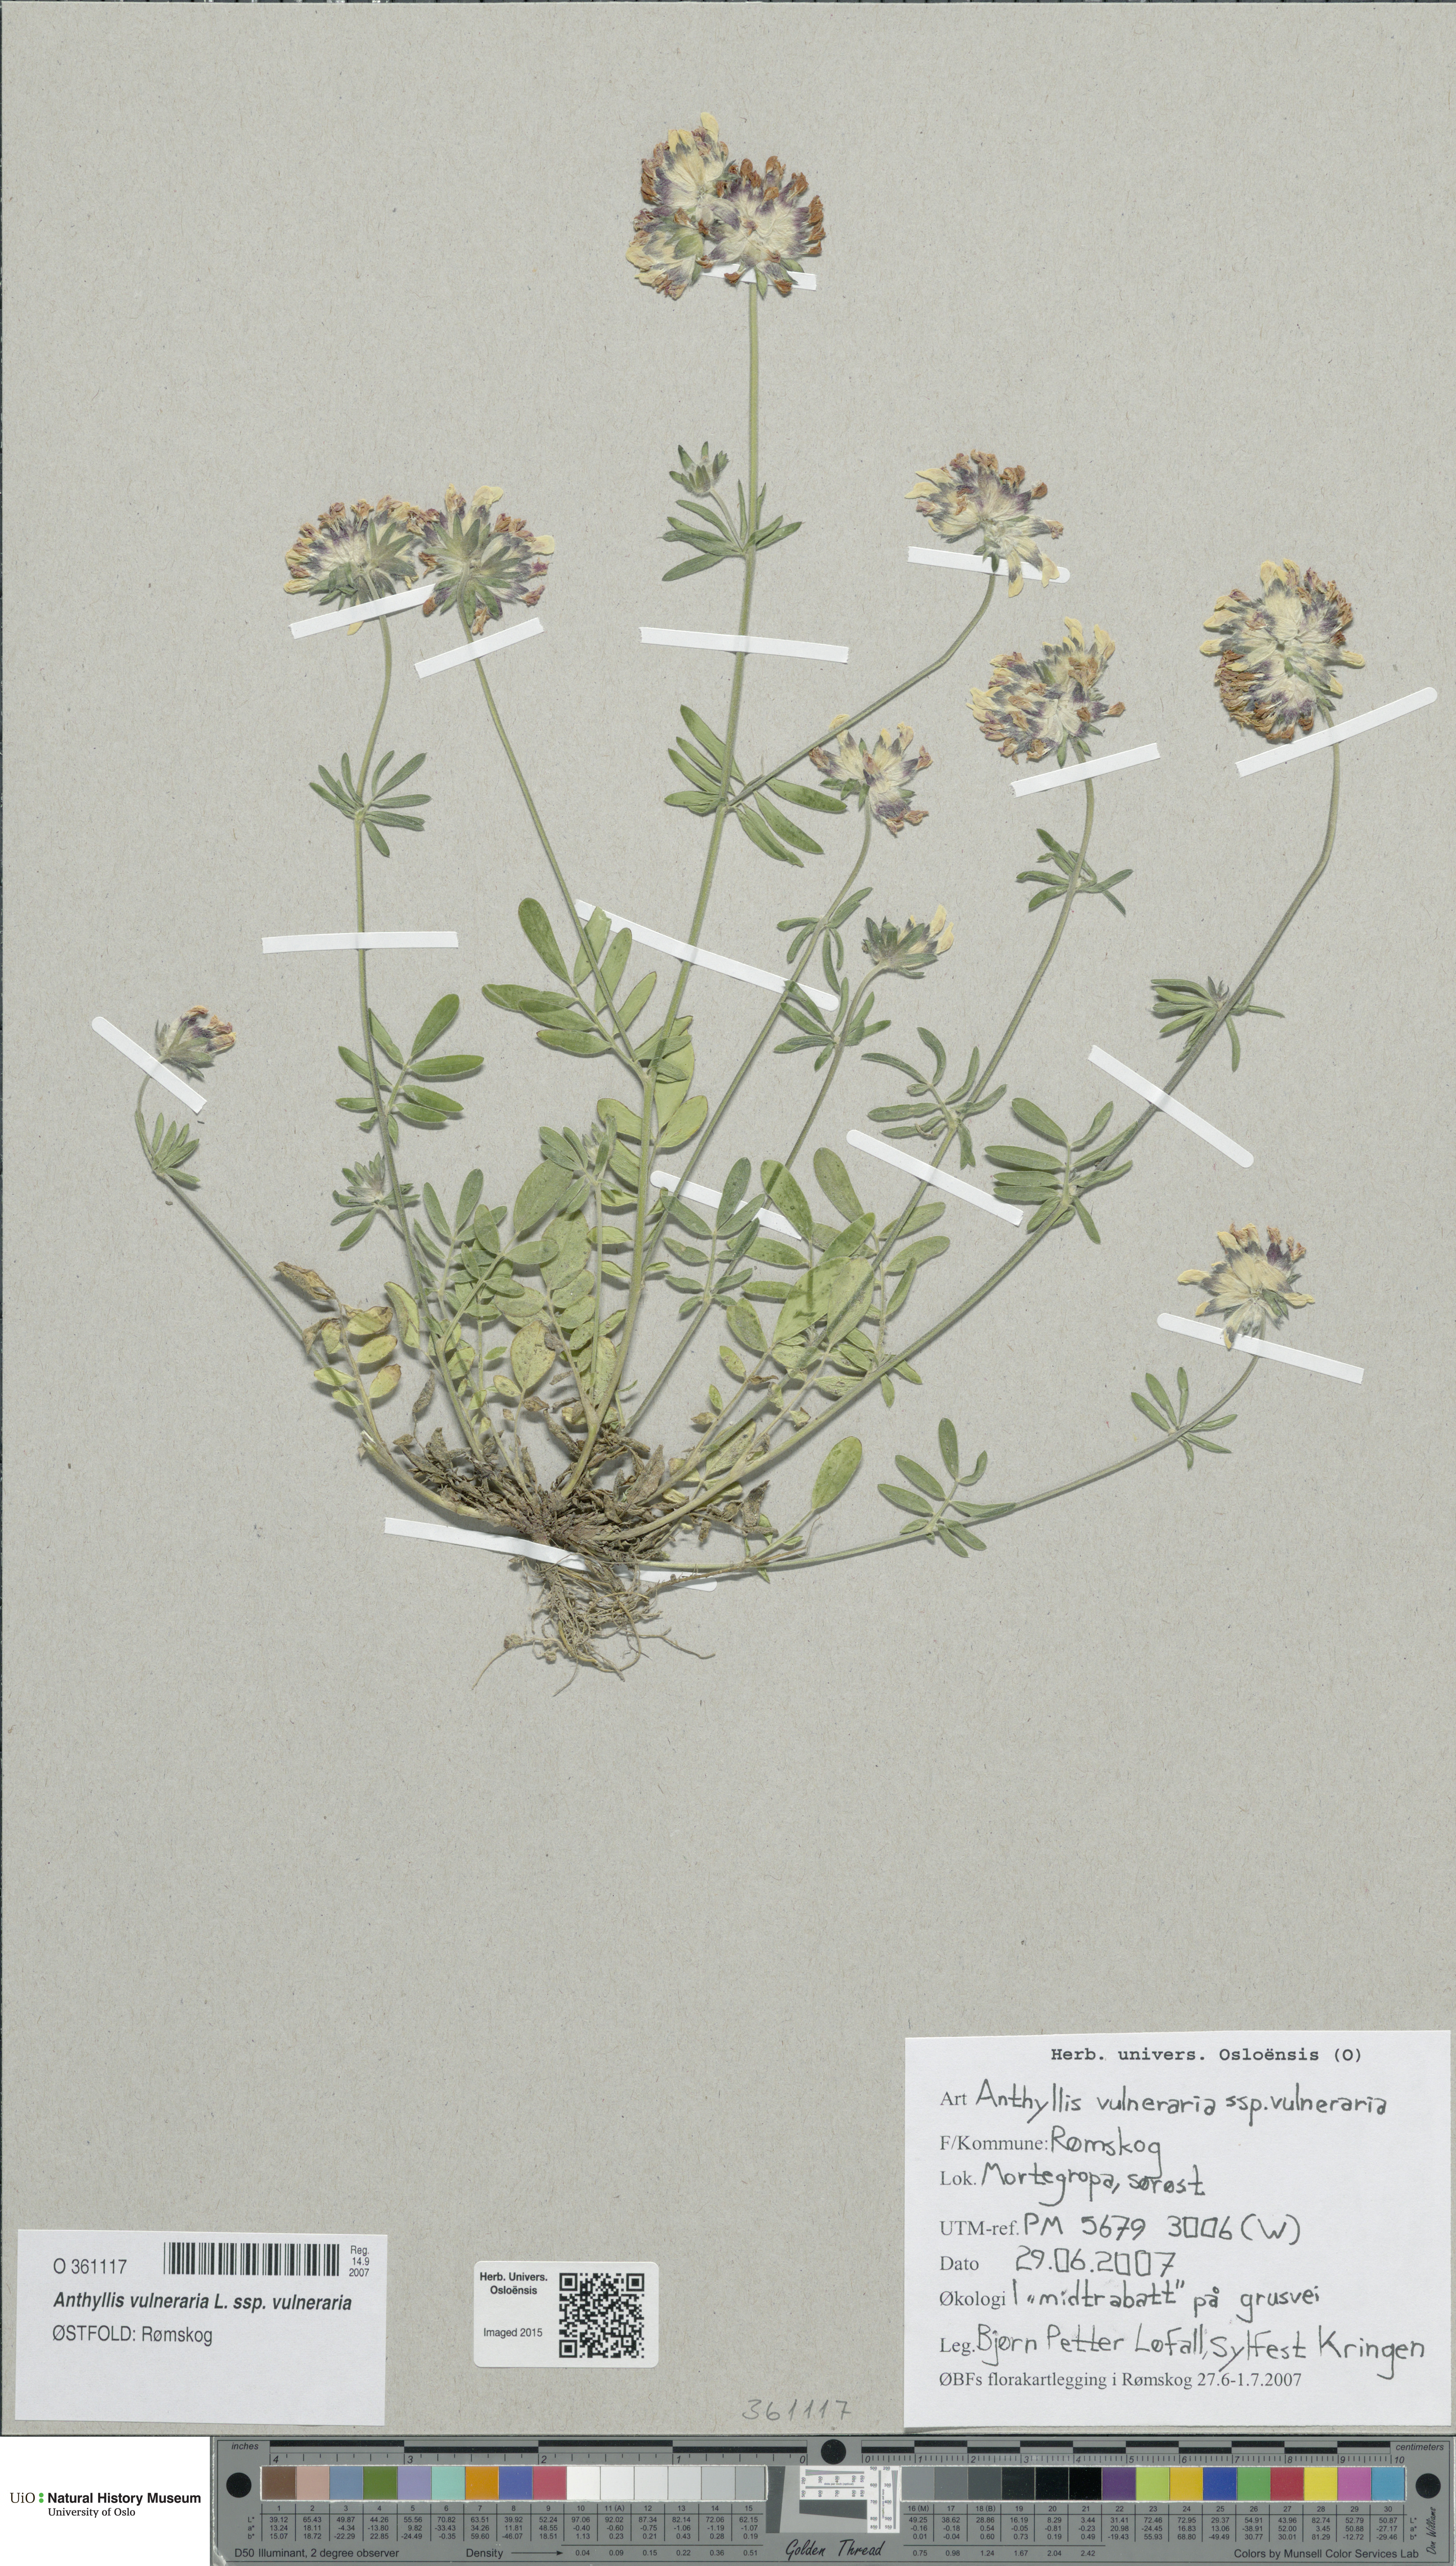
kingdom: Plantae
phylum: Tracheophyta
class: Magnoliopsida
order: Fabales
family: Fabaceae
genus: Anthyllis
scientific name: Anthyllis vulneraria
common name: Kidney vetch
